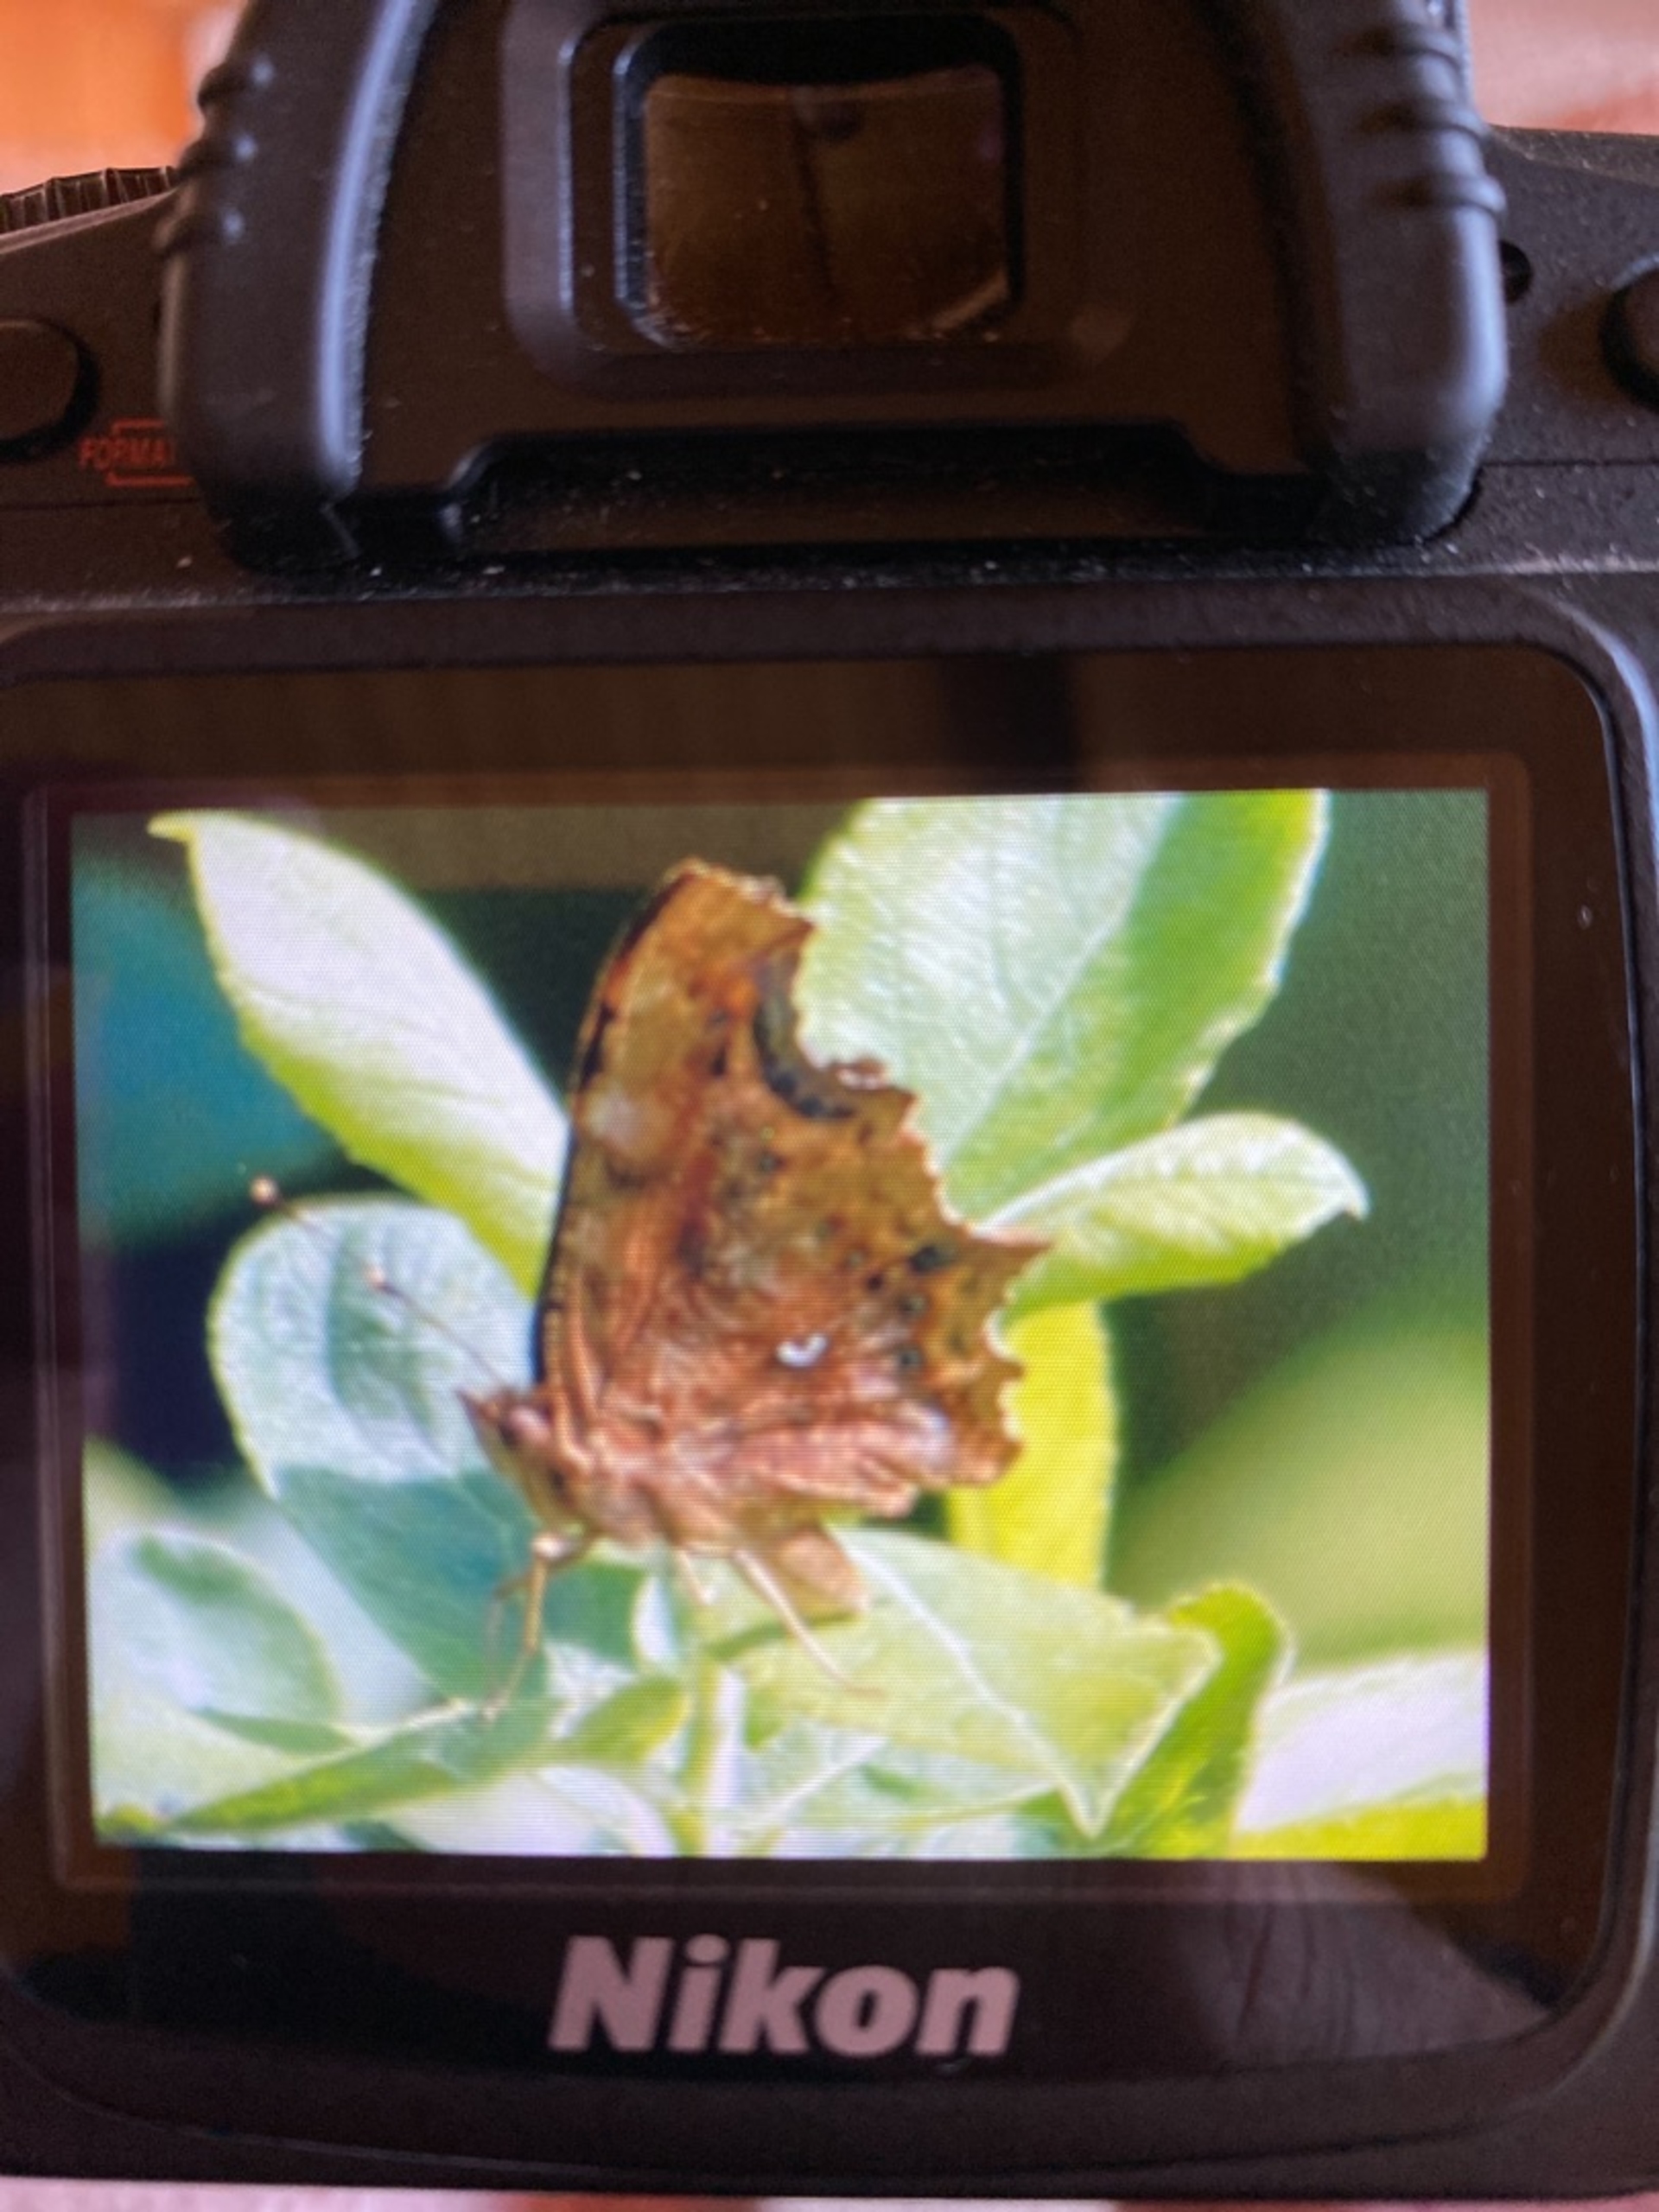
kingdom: Animalia
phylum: Arthropoda
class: Insecta
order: Lepidoptera
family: Nymphalidae
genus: Polygonia
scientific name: Polygonia c-album
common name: Det hvide C
